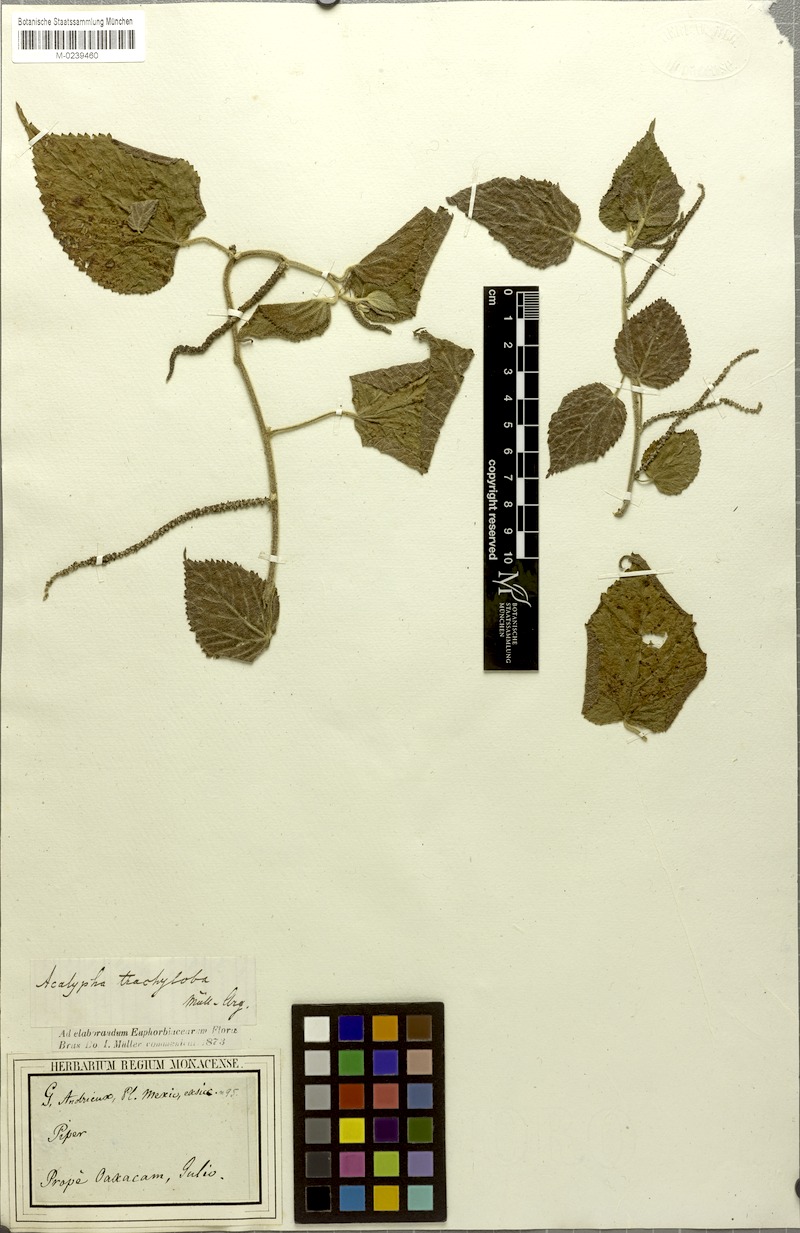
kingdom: Plantae
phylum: Tracheophyta
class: Magnoliopsida
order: Malpighiales
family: Euphorbiaceae
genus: Acalypha
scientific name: Acalypha trachyloba
